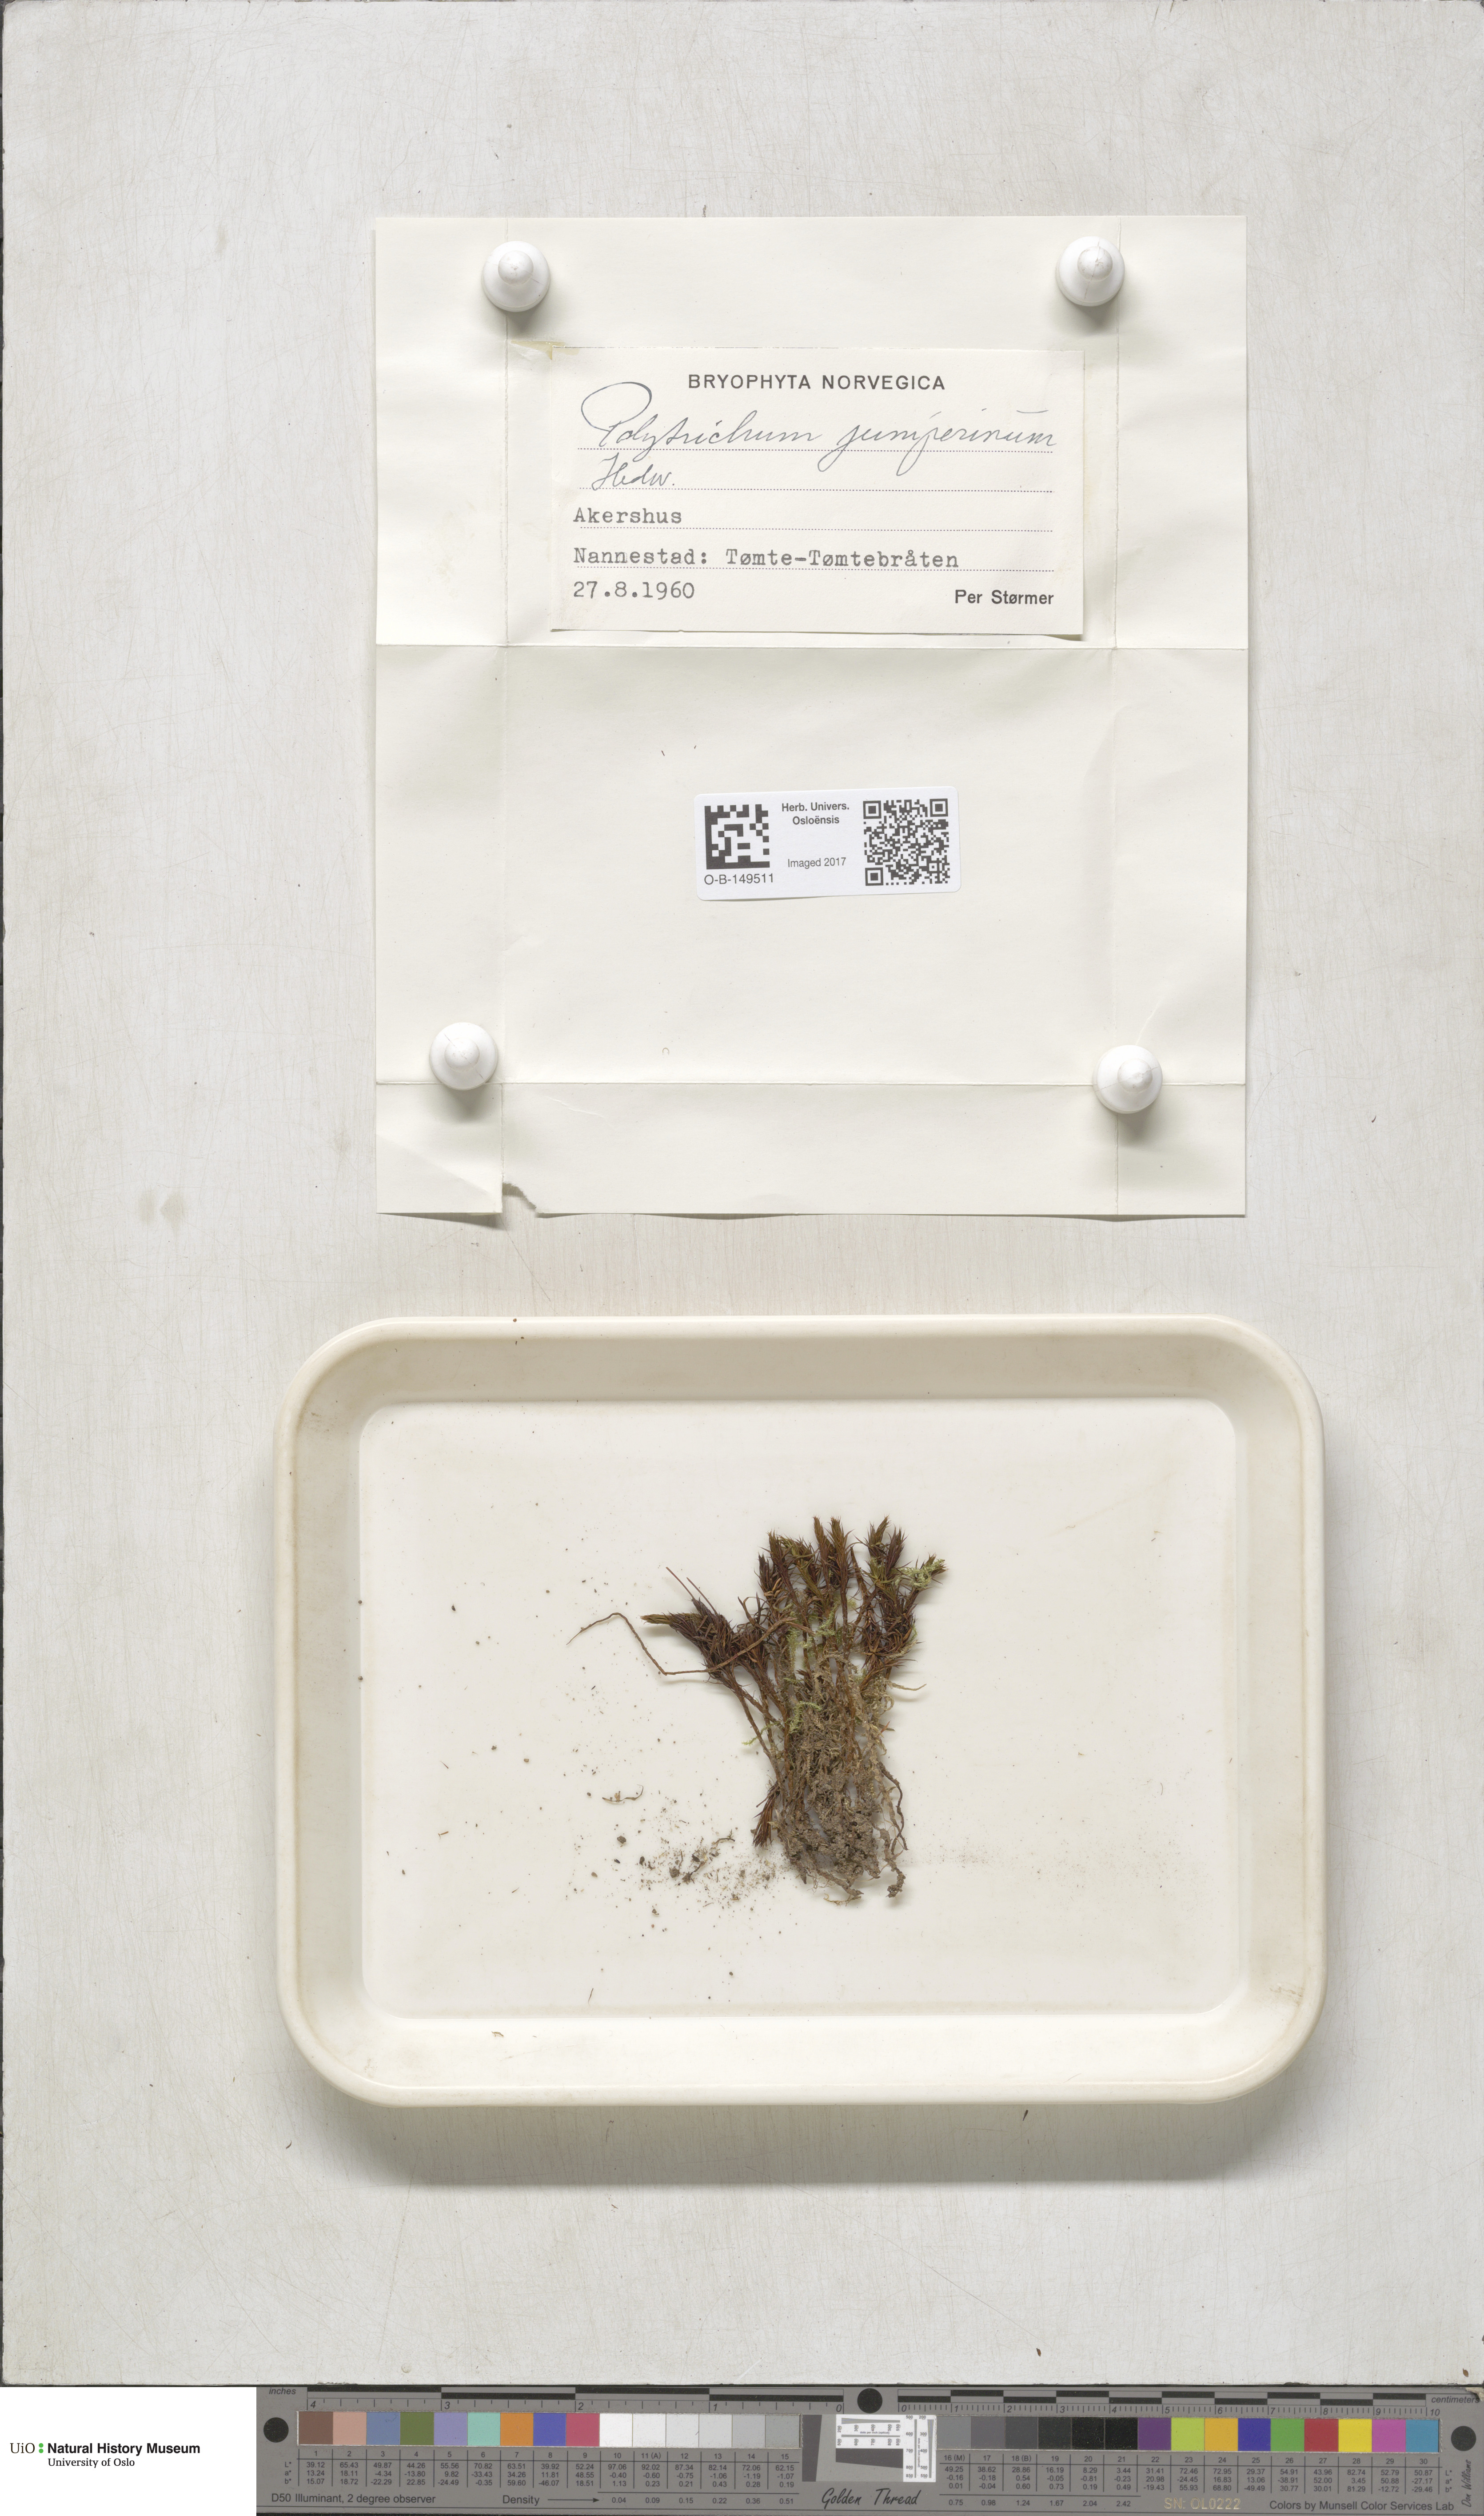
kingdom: Plantae
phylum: Bryophyta
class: Polytrichopsida
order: Polytrichales
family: Polytrichaceae
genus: Polytrichum
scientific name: Polytrichum juniperinum
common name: Juniper haircap moss
